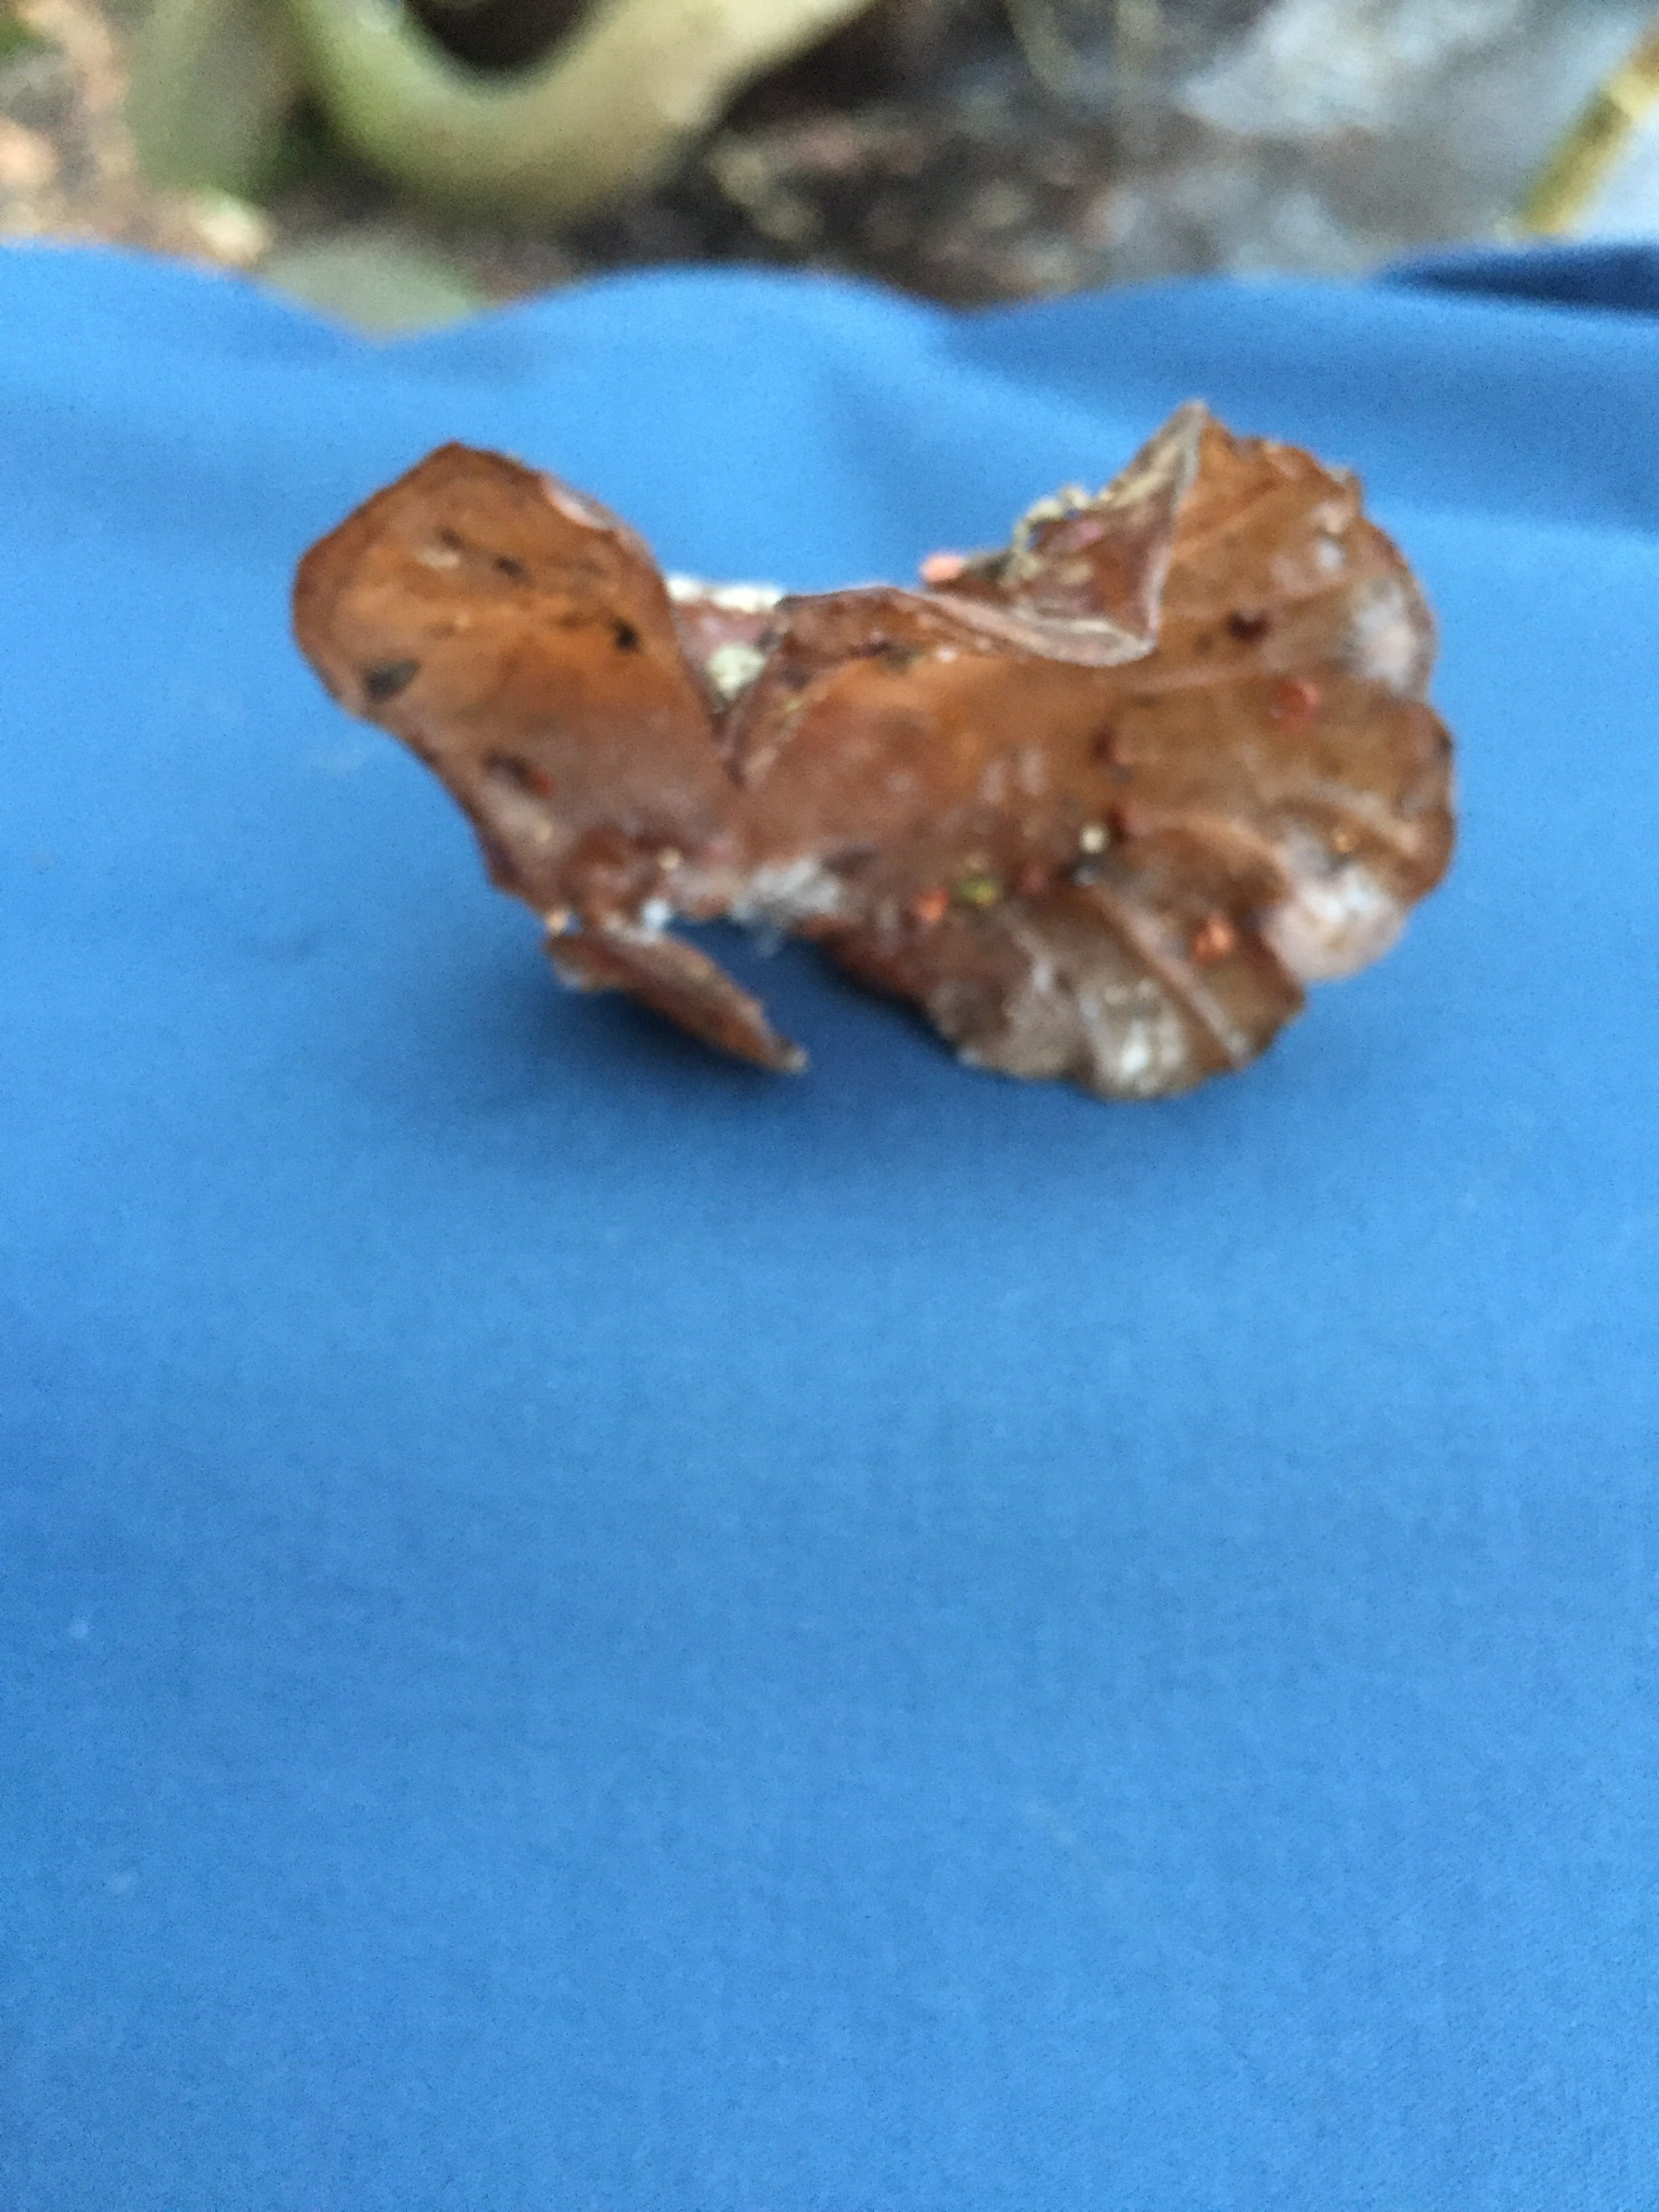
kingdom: Fungi
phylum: Basidiomycota
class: Agaricomycetes
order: Auriculariales
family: Auriculariaceae
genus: Auricularia
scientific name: Auricularia auricula-judae
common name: almindelig judasøre
